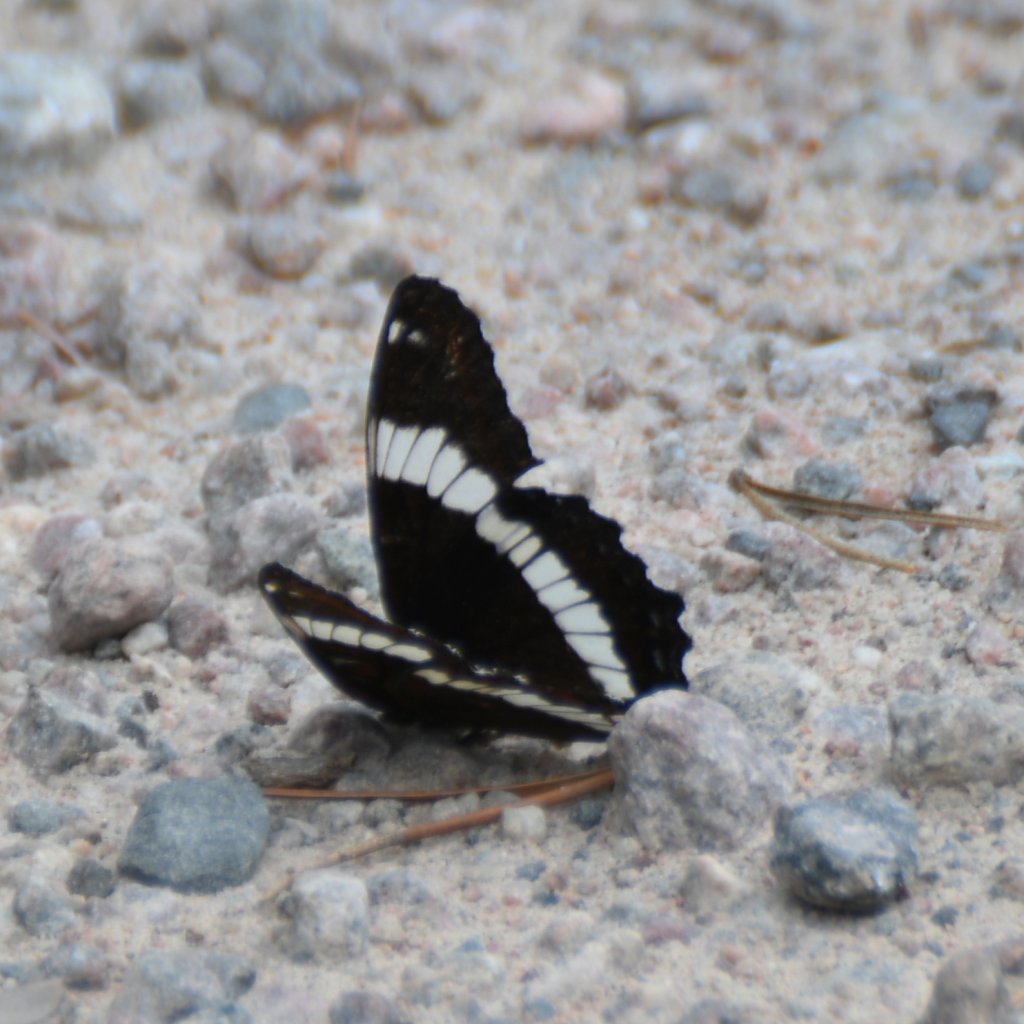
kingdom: Animalia
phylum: Arthropoda
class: Insecta
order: Lepidoptera
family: Nymphalidae
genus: Limenitis
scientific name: Limenitis arthemis
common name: Red-spotted Admiral
